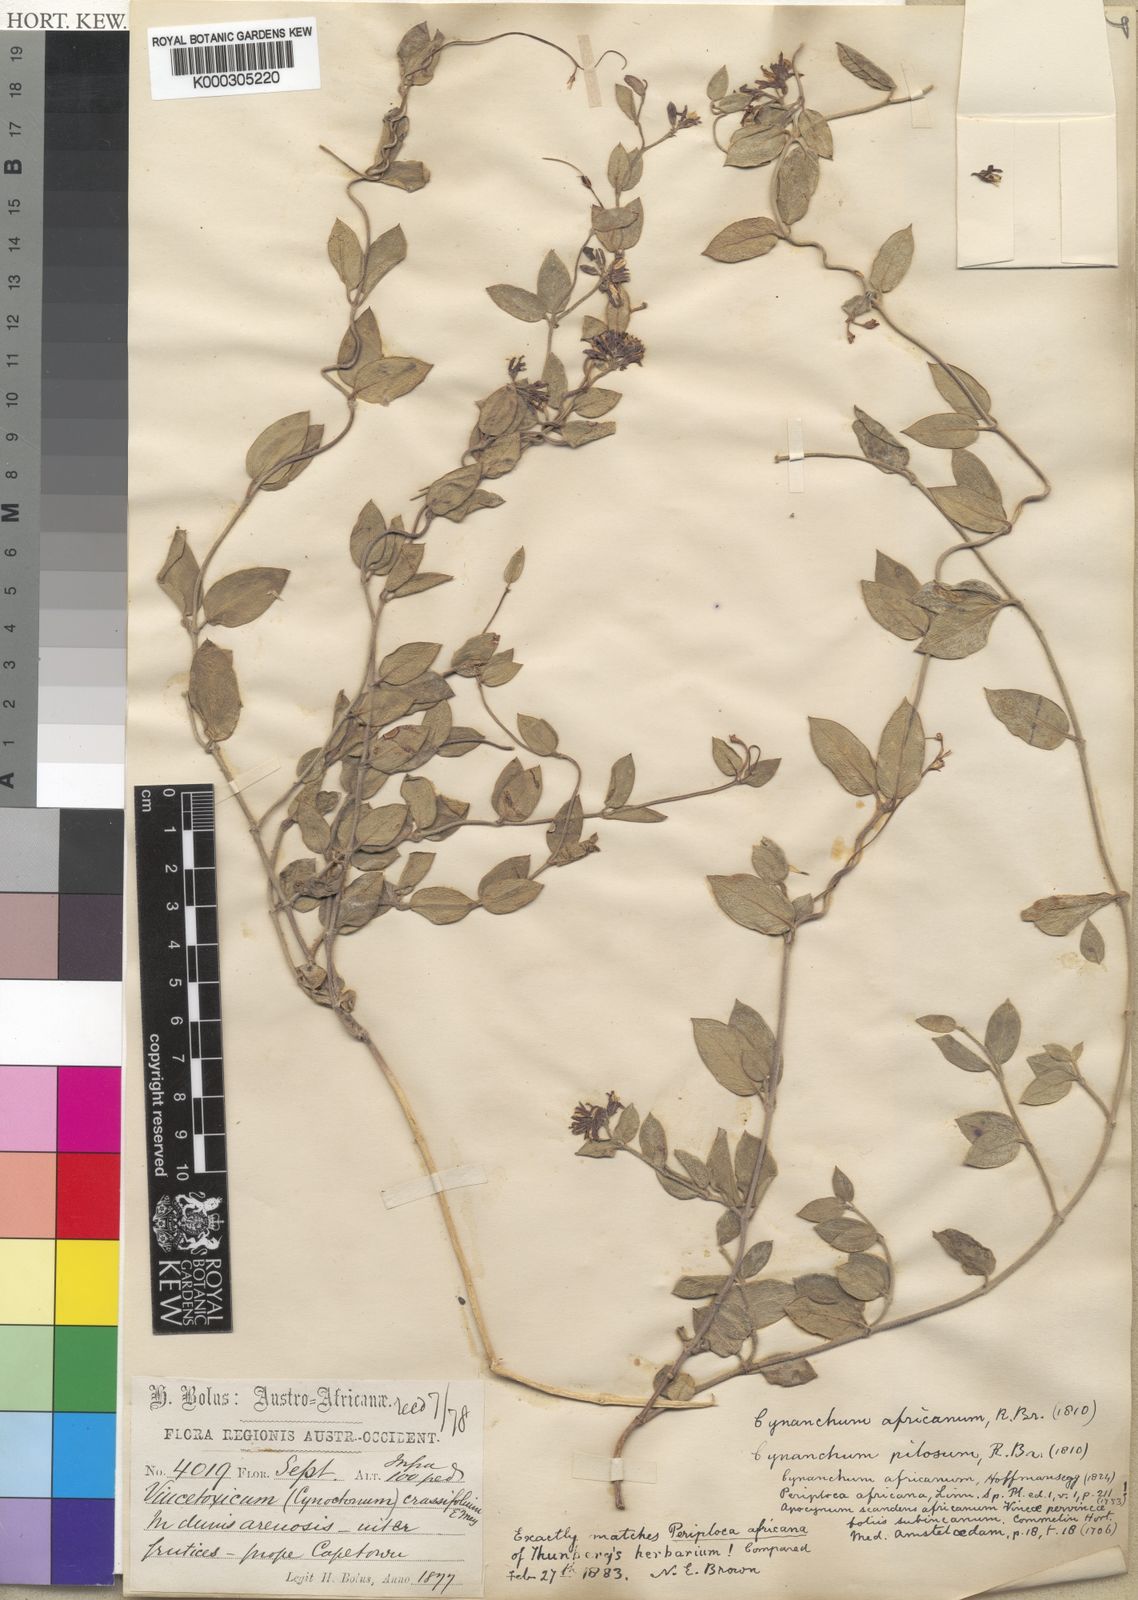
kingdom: Plantae
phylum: Tracheophyta
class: Magnoliopsida
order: Gentianales
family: Apocynaceae
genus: Cynanchum
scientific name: Cynanchum africanum
